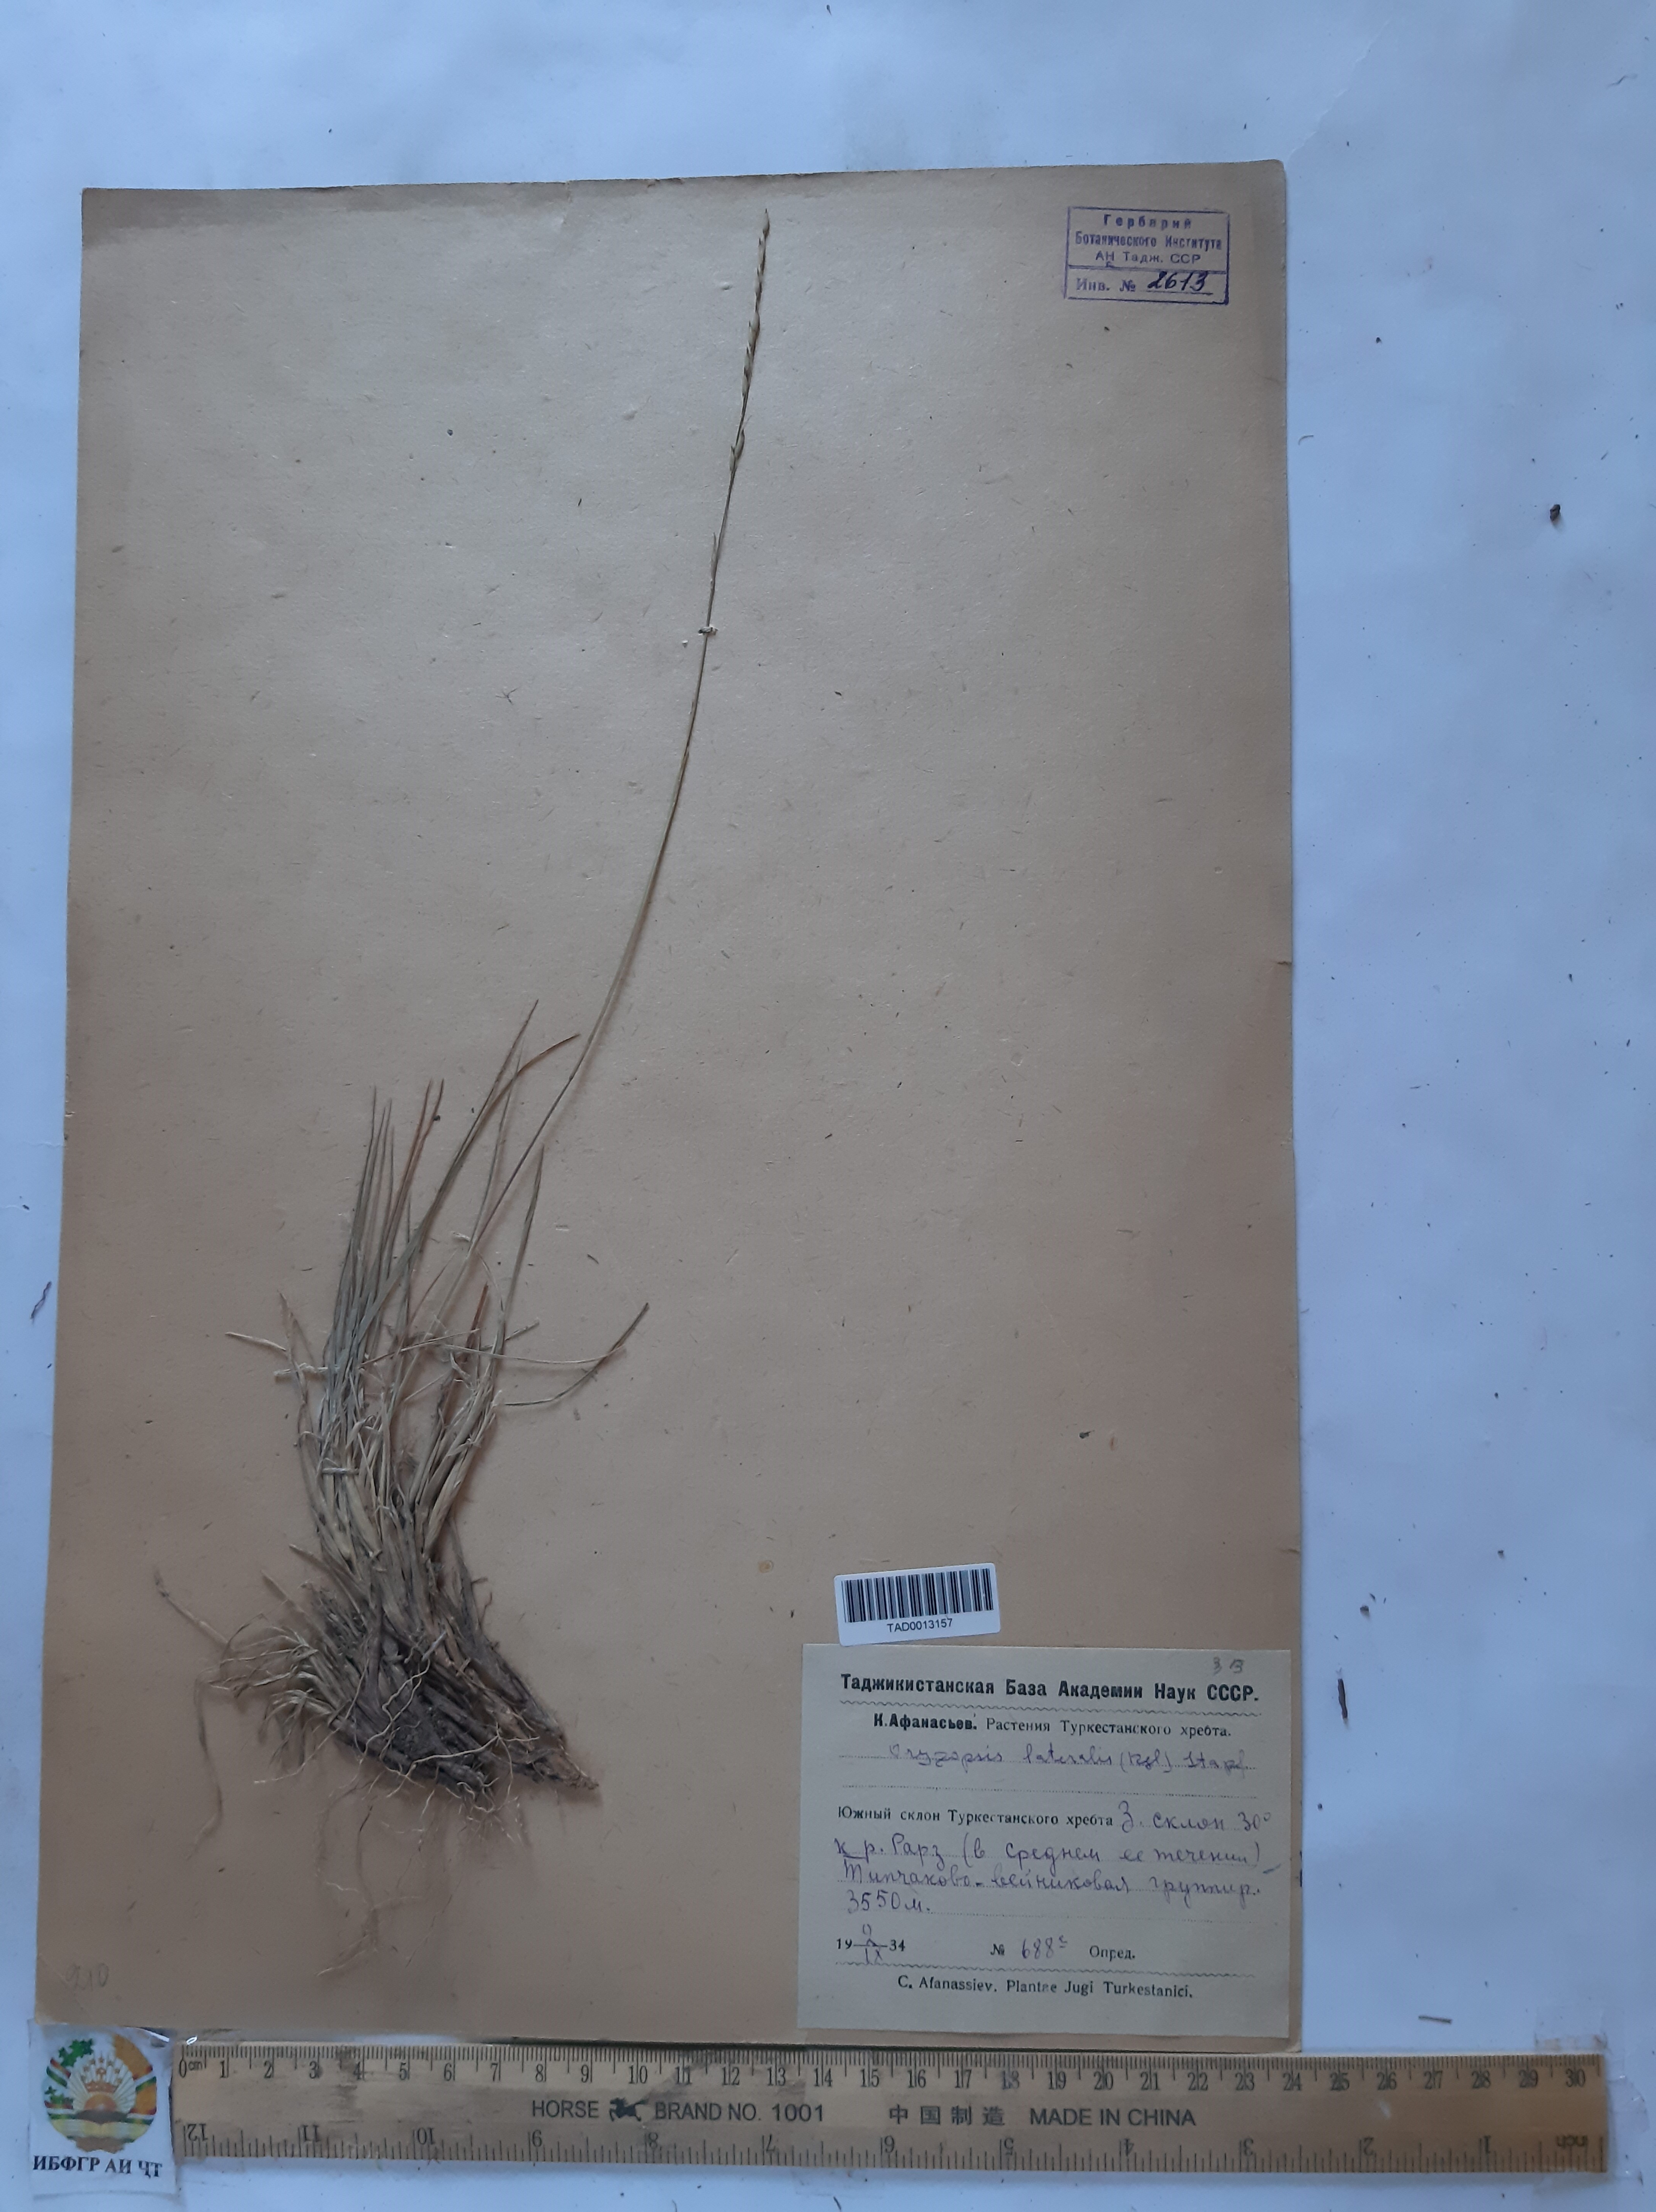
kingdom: Plantae
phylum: Tracheophyta
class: Liliopsida
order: Poales
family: Poaceae
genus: Piptatherum
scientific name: Piptatherum laterale
